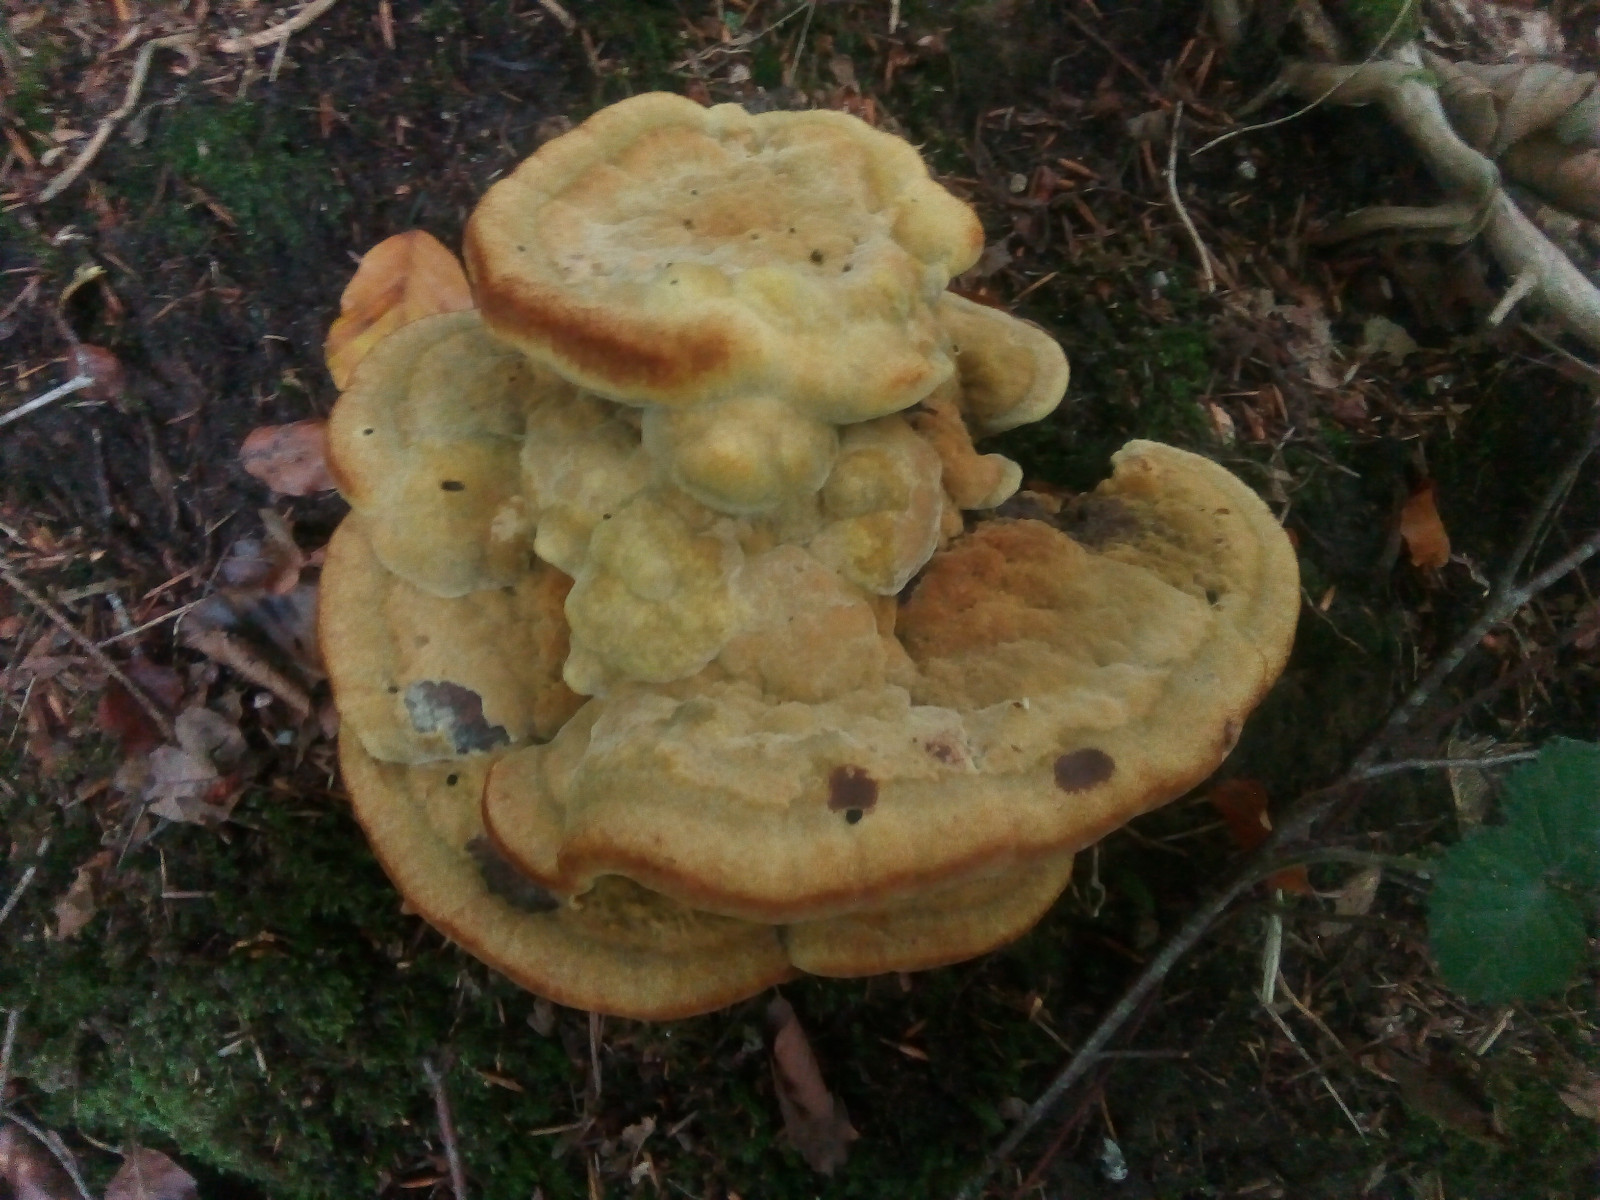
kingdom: Fungi
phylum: Basidiomycota
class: Agaricomycetes
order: Polyporales
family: Laetiporaceae
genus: Phaeolus
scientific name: Phaeolus schweinitzii
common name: brunporesvamp
